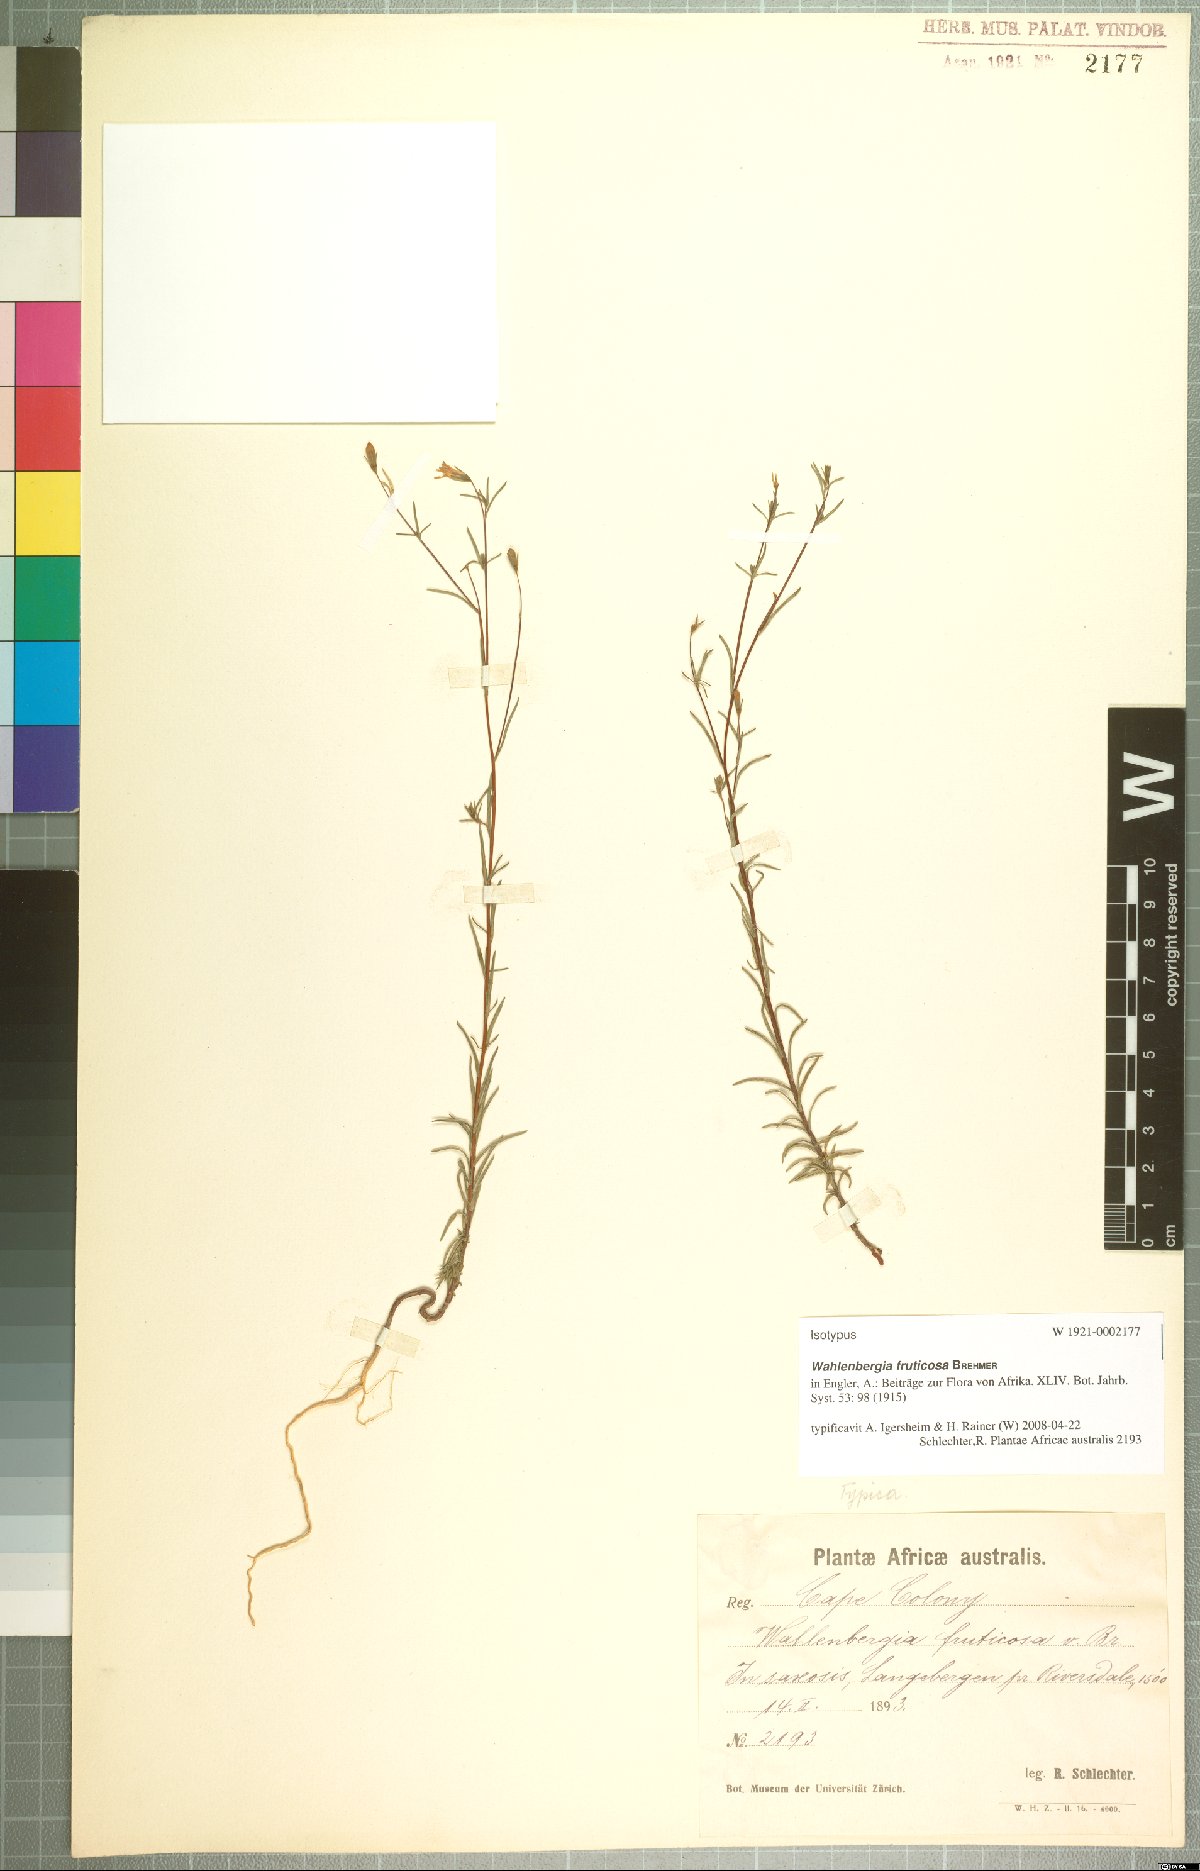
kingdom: Plantae
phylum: Tracheophyta
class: Magnoliopsida
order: Asterales
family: Campanulaceae
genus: Wahlenbergia
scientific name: Wahlenbergia fruticosa
